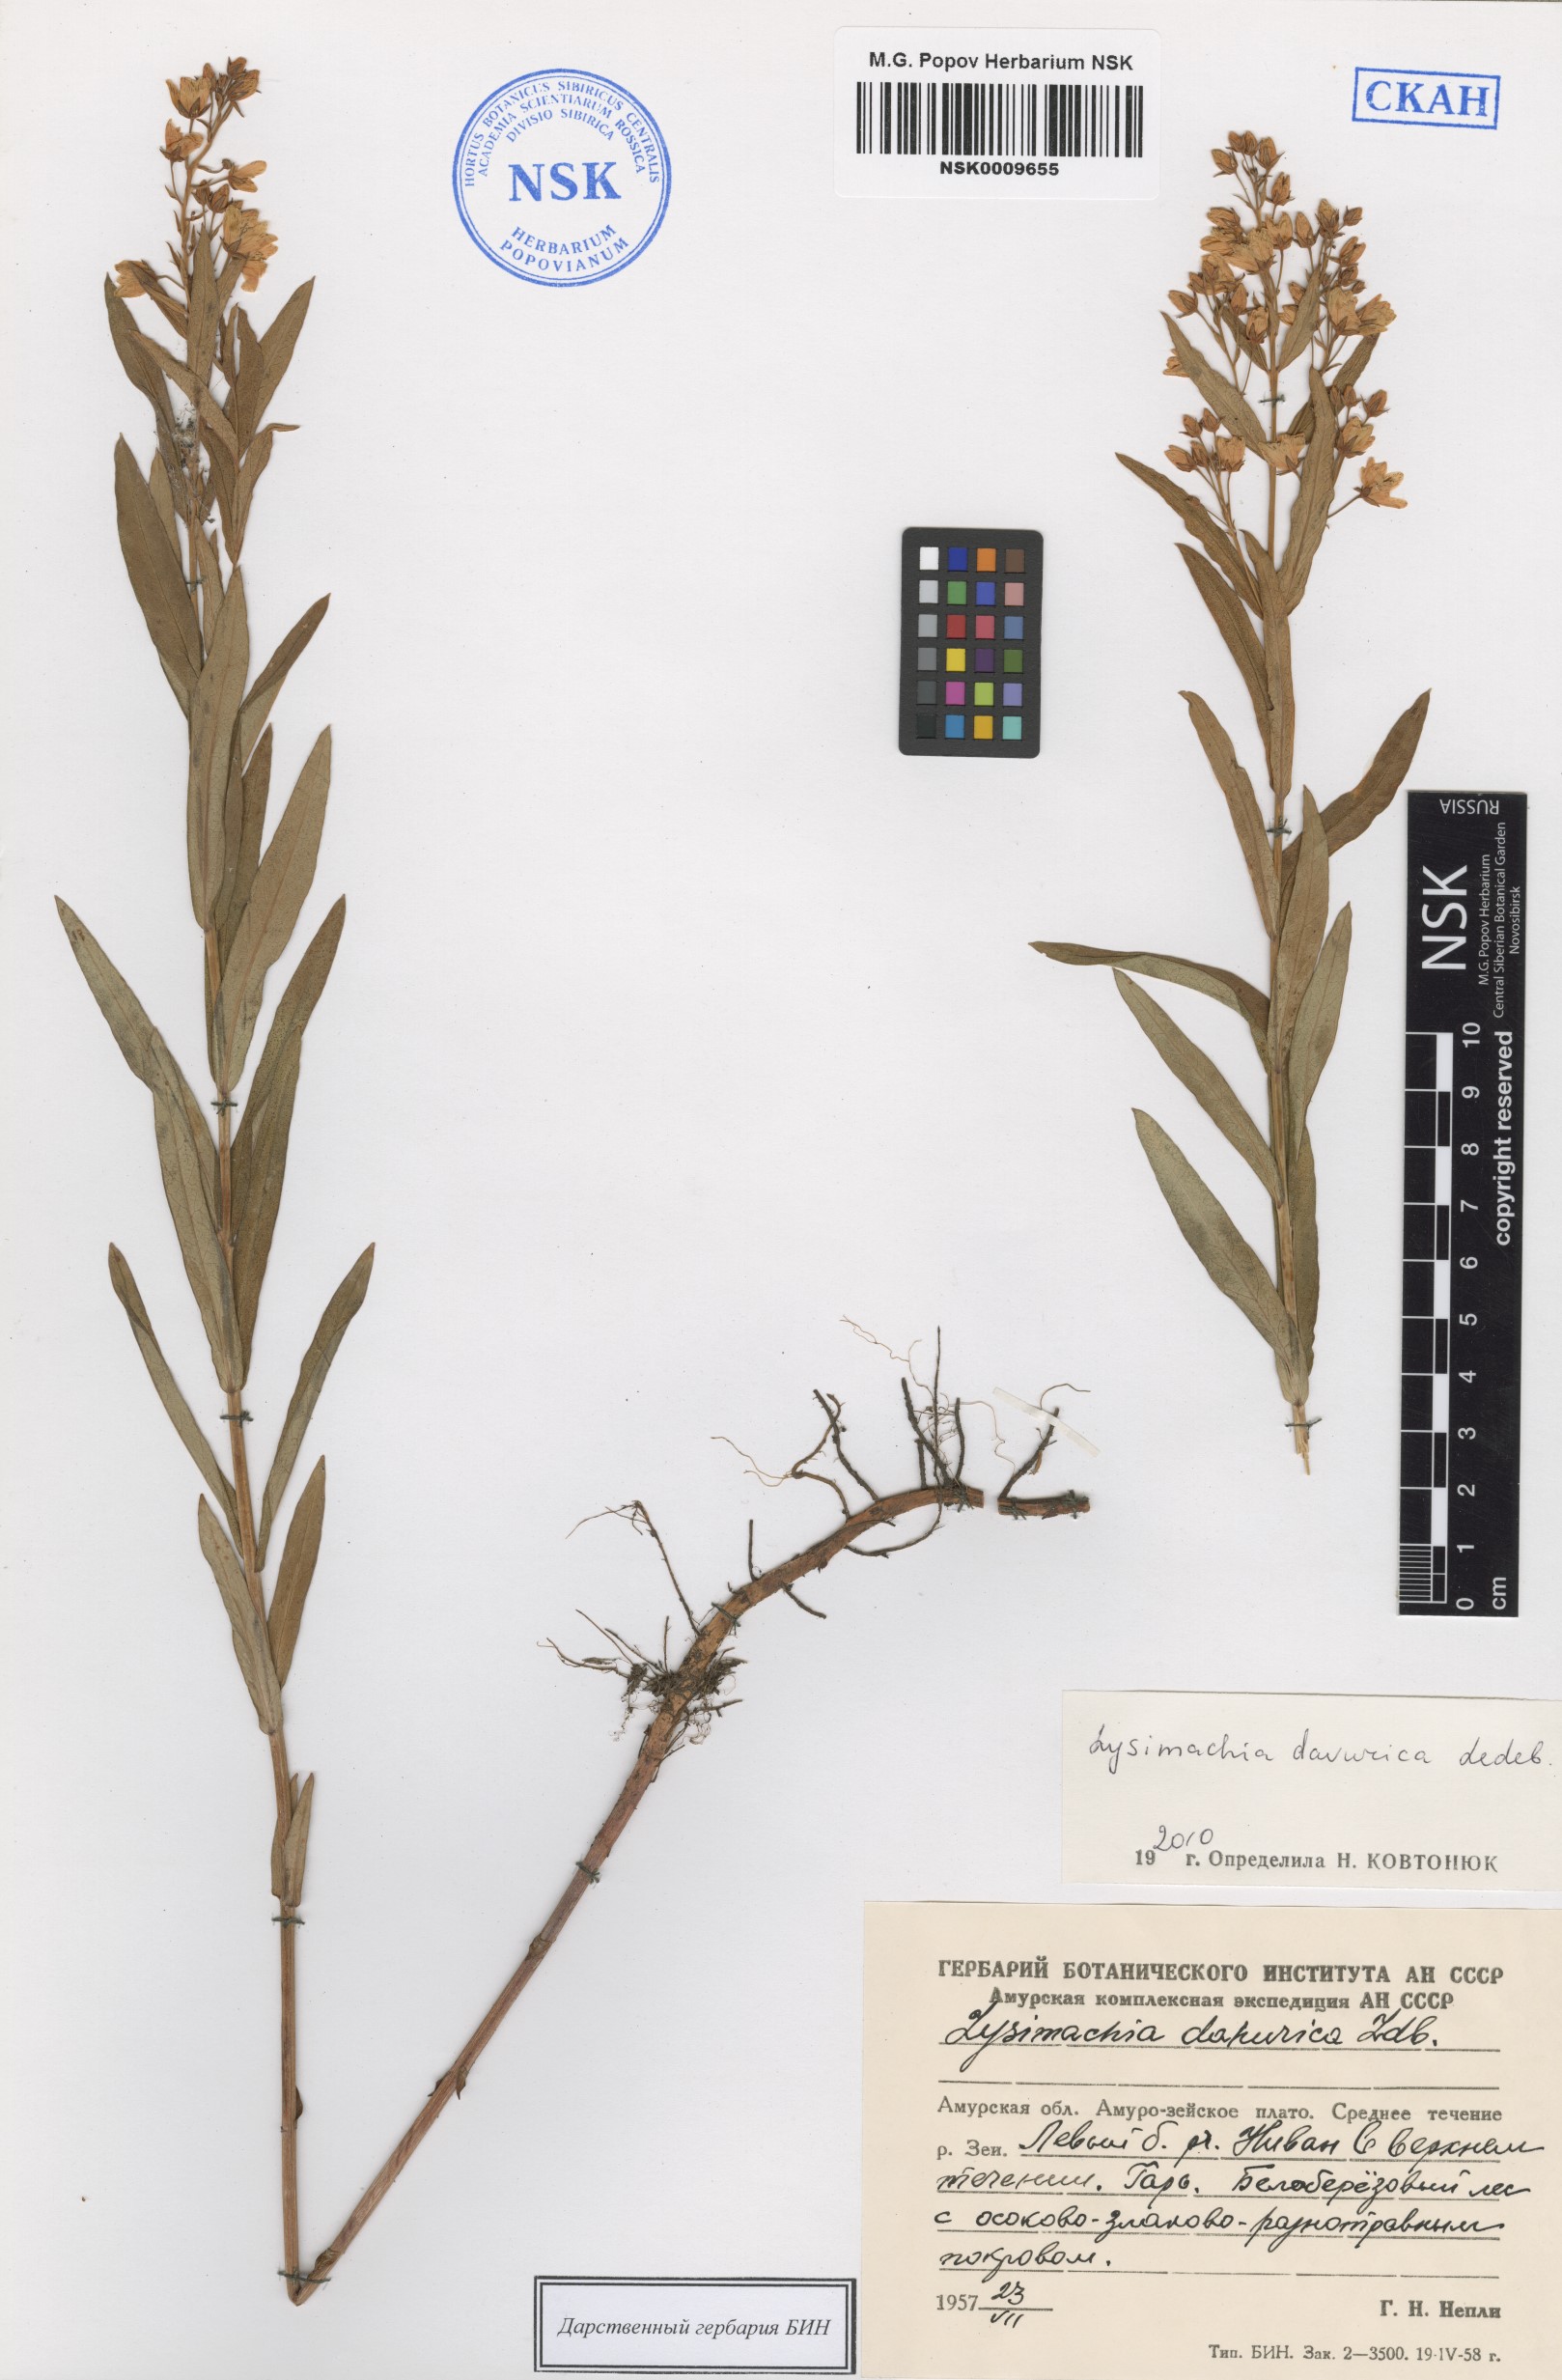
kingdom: Plantae
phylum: Tracheophyta
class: Magnoliopsida
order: Ericales
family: Primulaceae
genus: Lysimachia
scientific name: Lysimachia davurica
